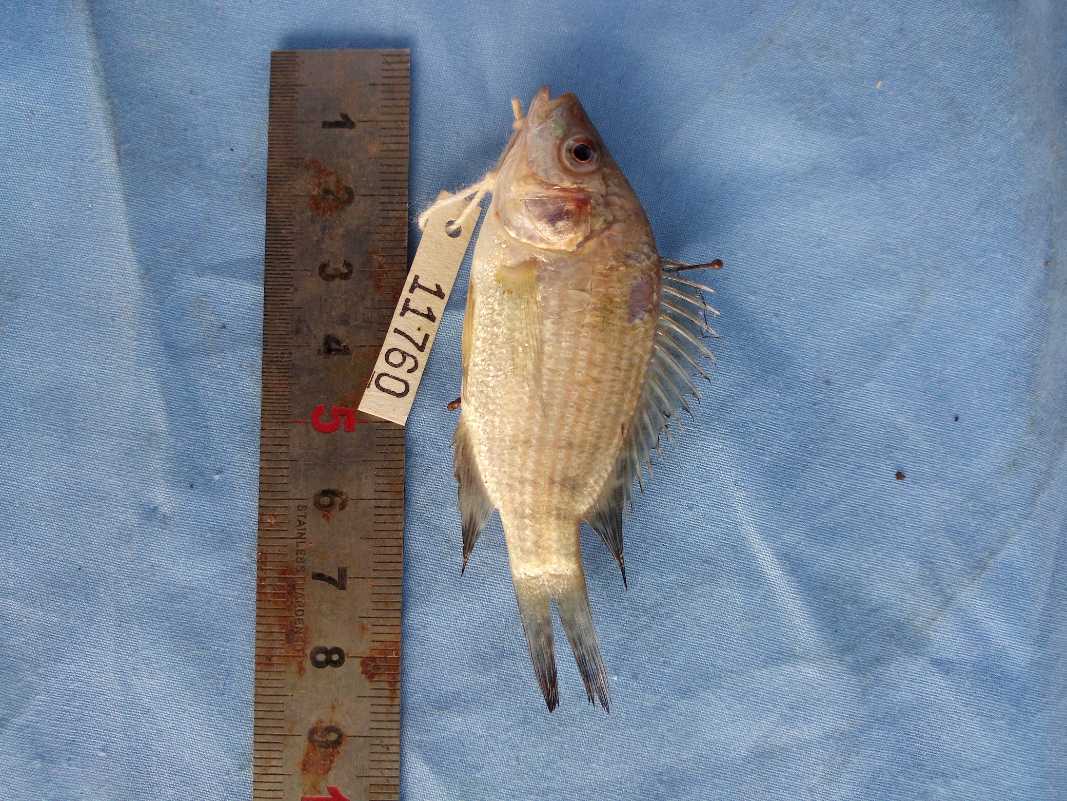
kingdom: Animalia
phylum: Chordata
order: Perciformes
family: Cichlidae
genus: Oreochromis
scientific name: Oreochromis spilurus
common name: Sabaki tilapia
